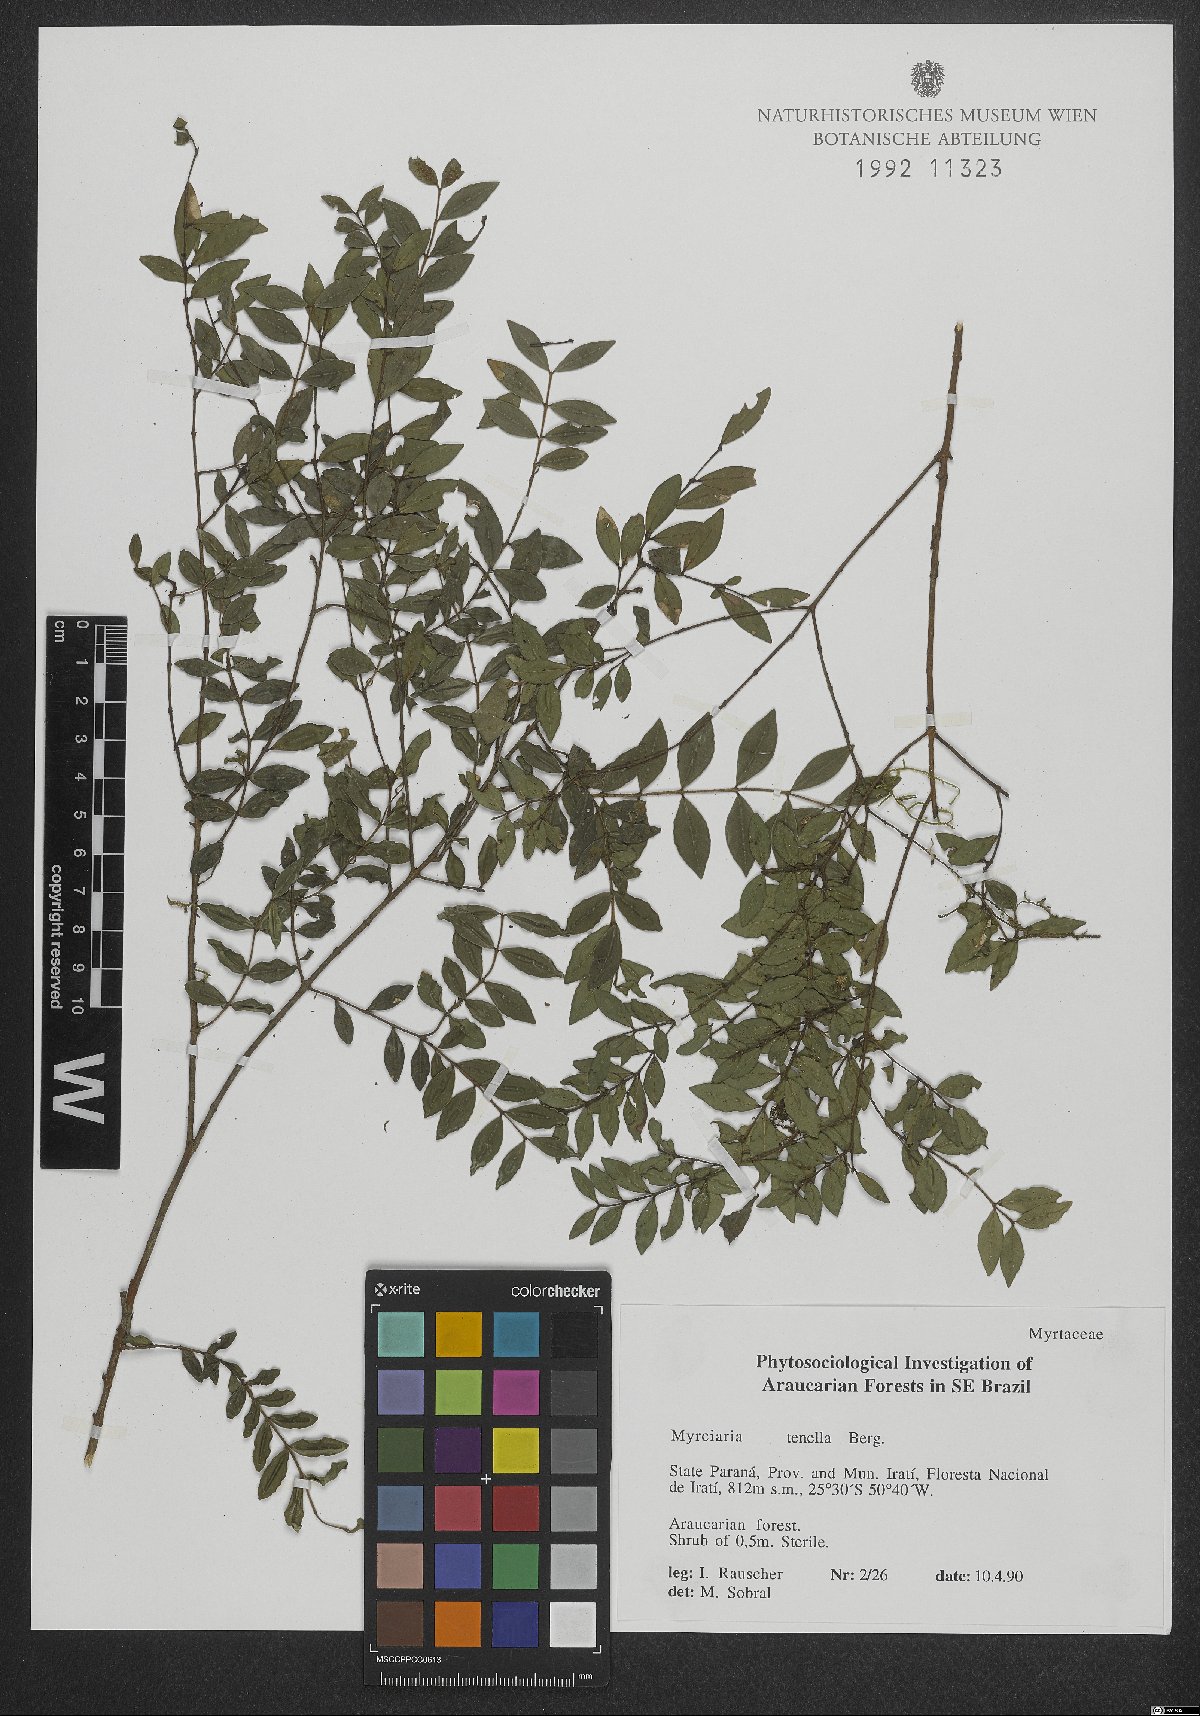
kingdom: Plantae
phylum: Tracheophyta
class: Magnoliopsida
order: Myrtales
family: Myrtaceae
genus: Myrciaria
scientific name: Myrciaria tenella
